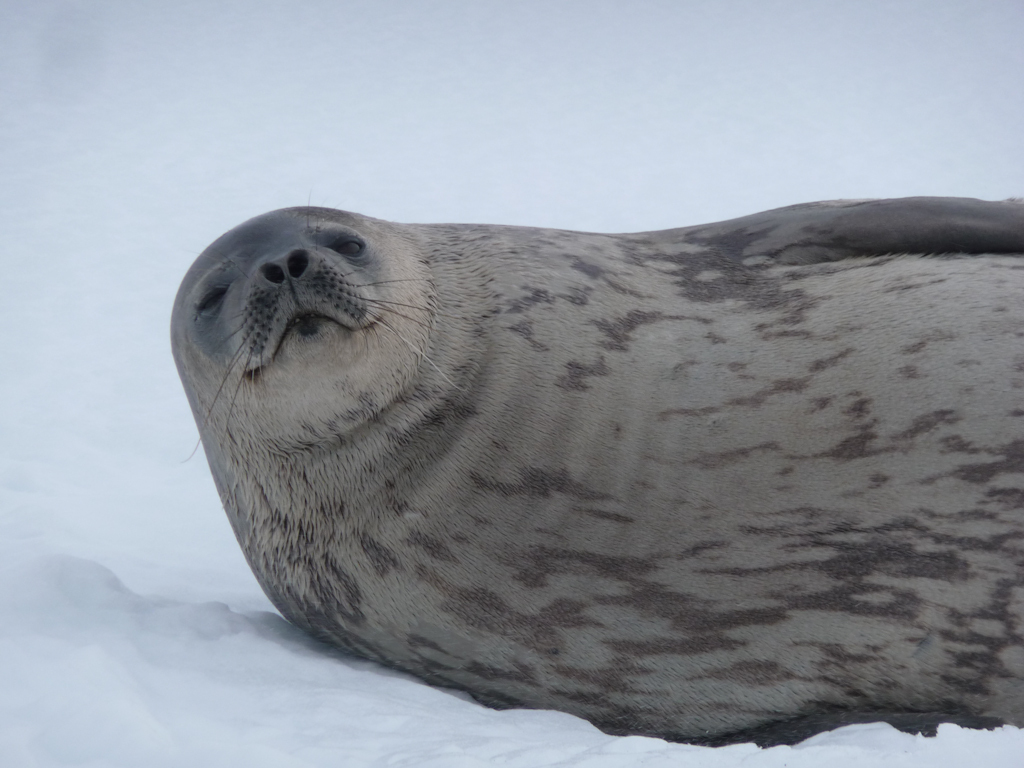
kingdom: Animalia
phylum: Chordata
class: Mammalia
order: Carnivora
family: Phocidae
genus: Leptonychotes
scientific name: Leptonychotes weddellii
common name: Weddell Seal
